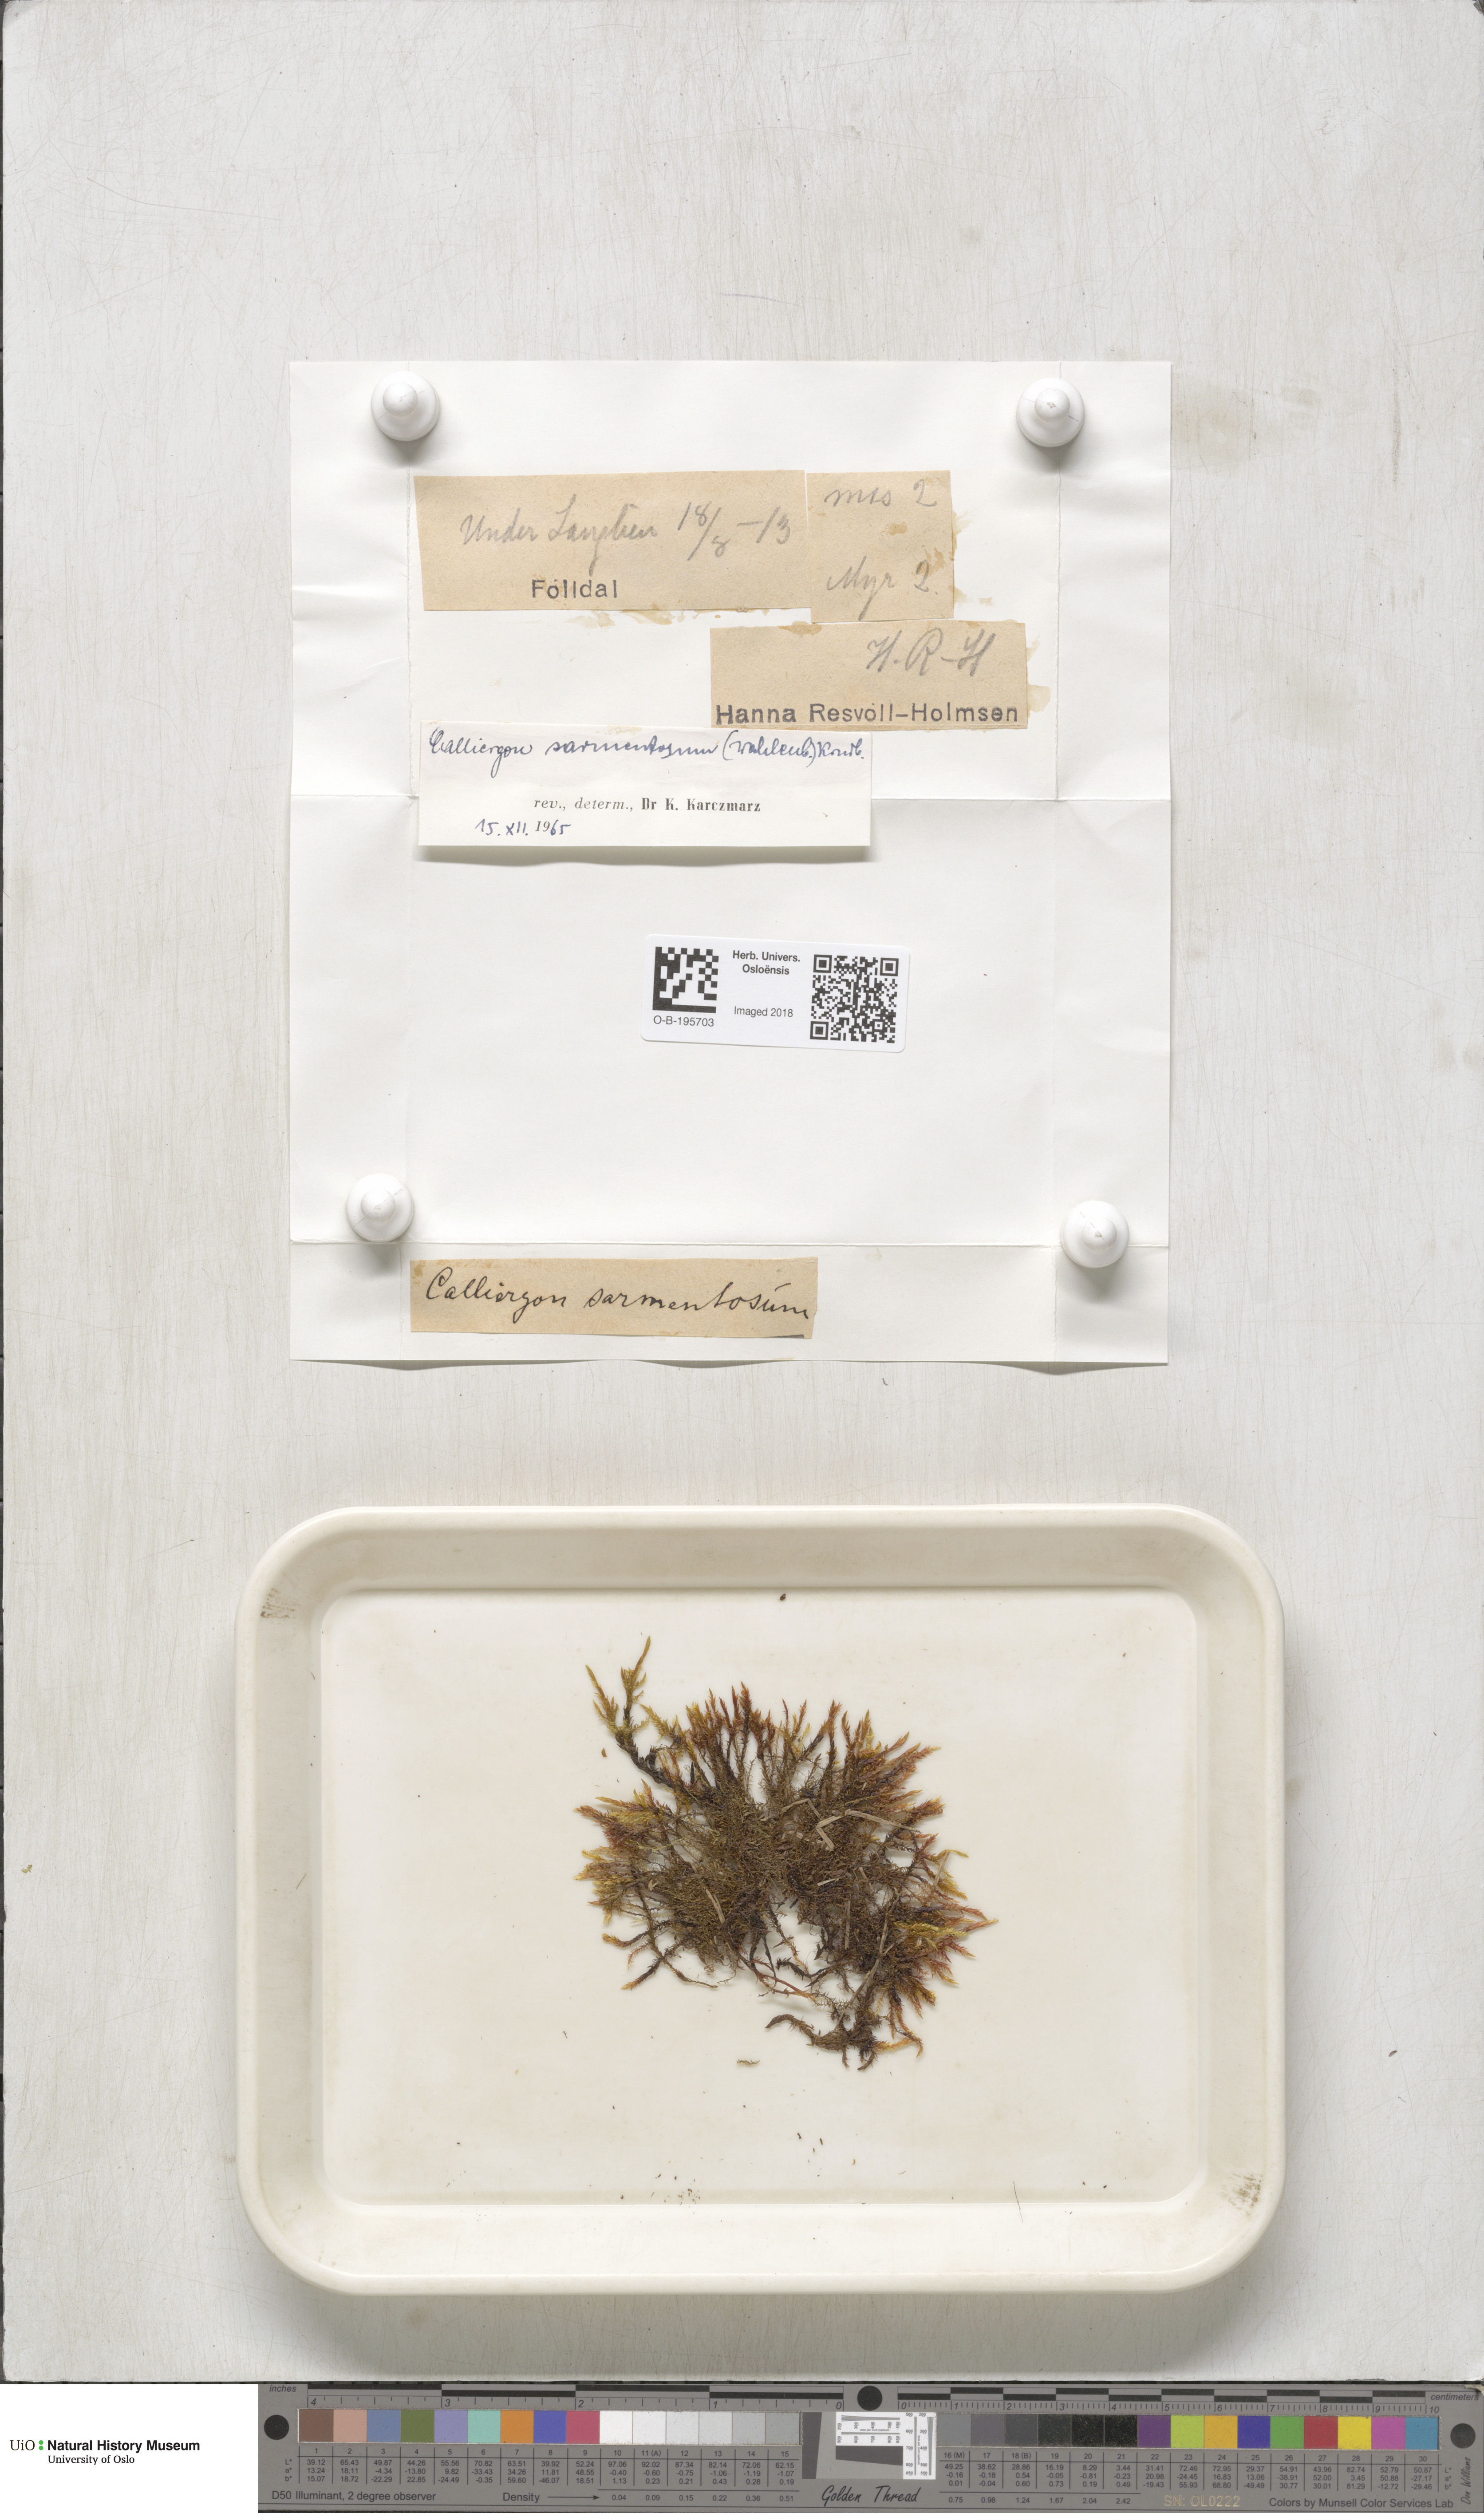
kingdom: Plantae
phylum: Bryophyta
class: Bryopsida
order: Hypnales
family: Calliergonaceae
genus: Warnstorfia
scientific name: Warnstorfia pseudostraminea
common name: Spring hook moss
